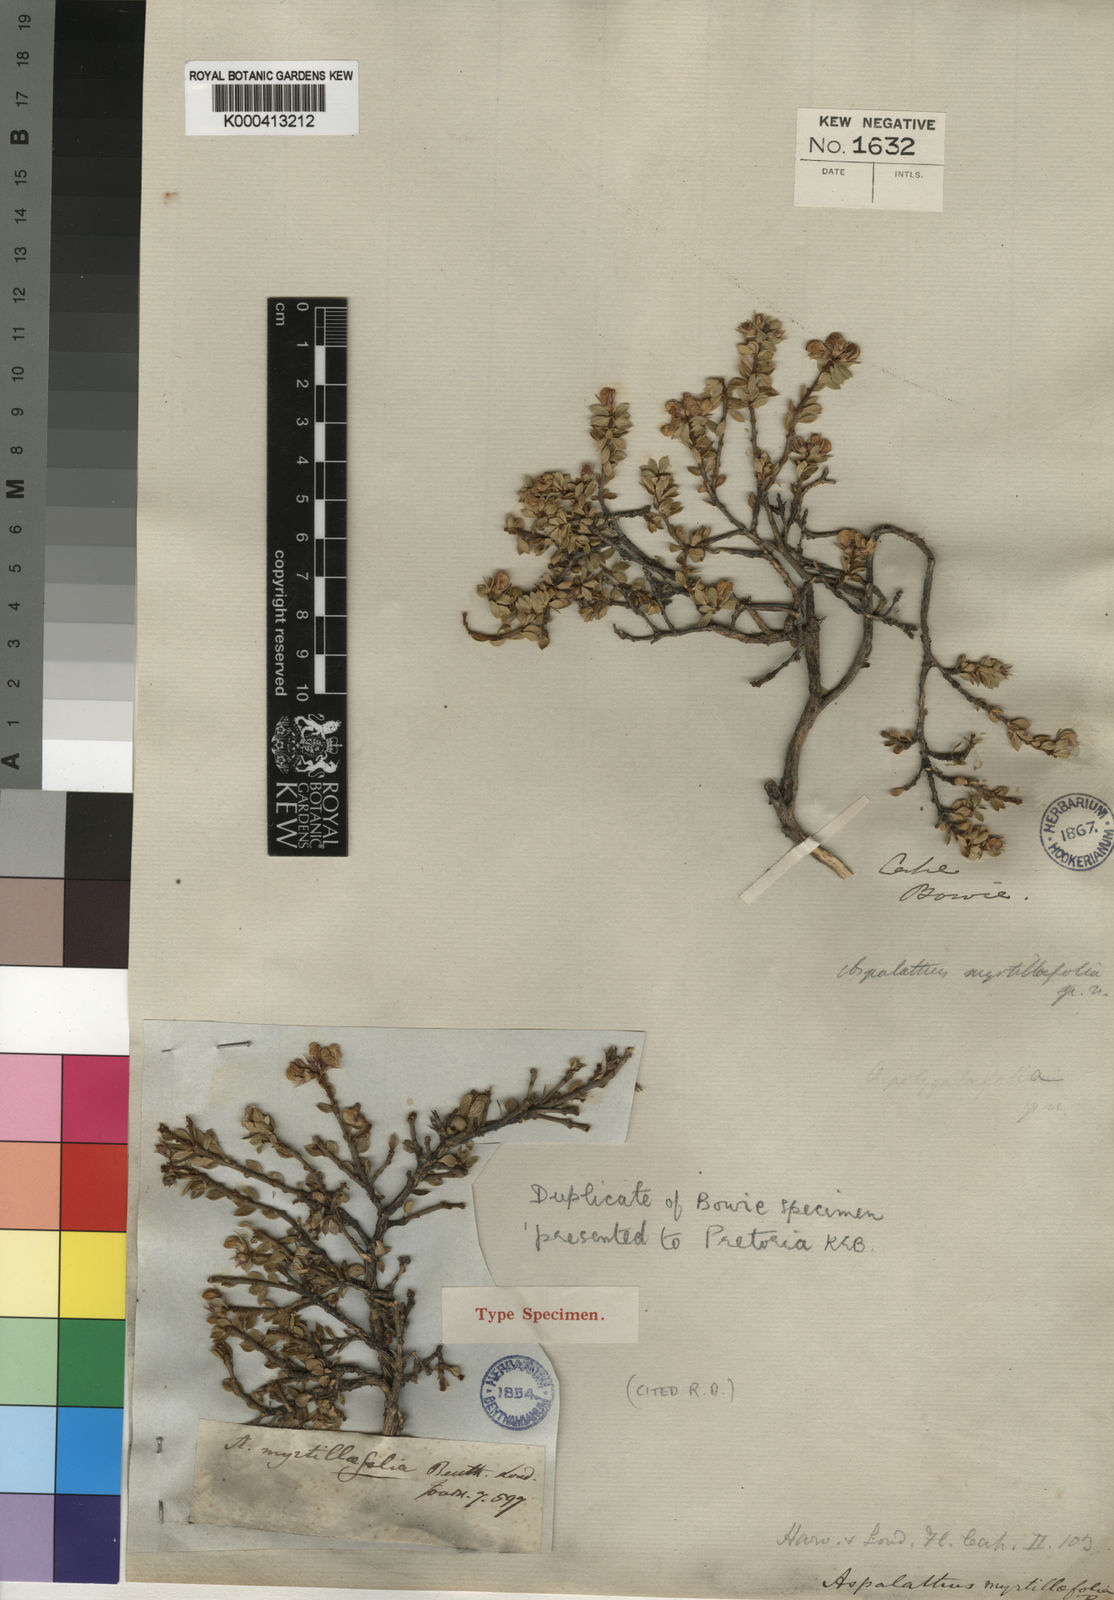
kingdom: Plantae
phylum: Tracheophyta
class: Magnoliopsida
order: Fabales
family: Fabaceae
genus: Aspalathus
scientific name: Aspalathus myrtillifolia
